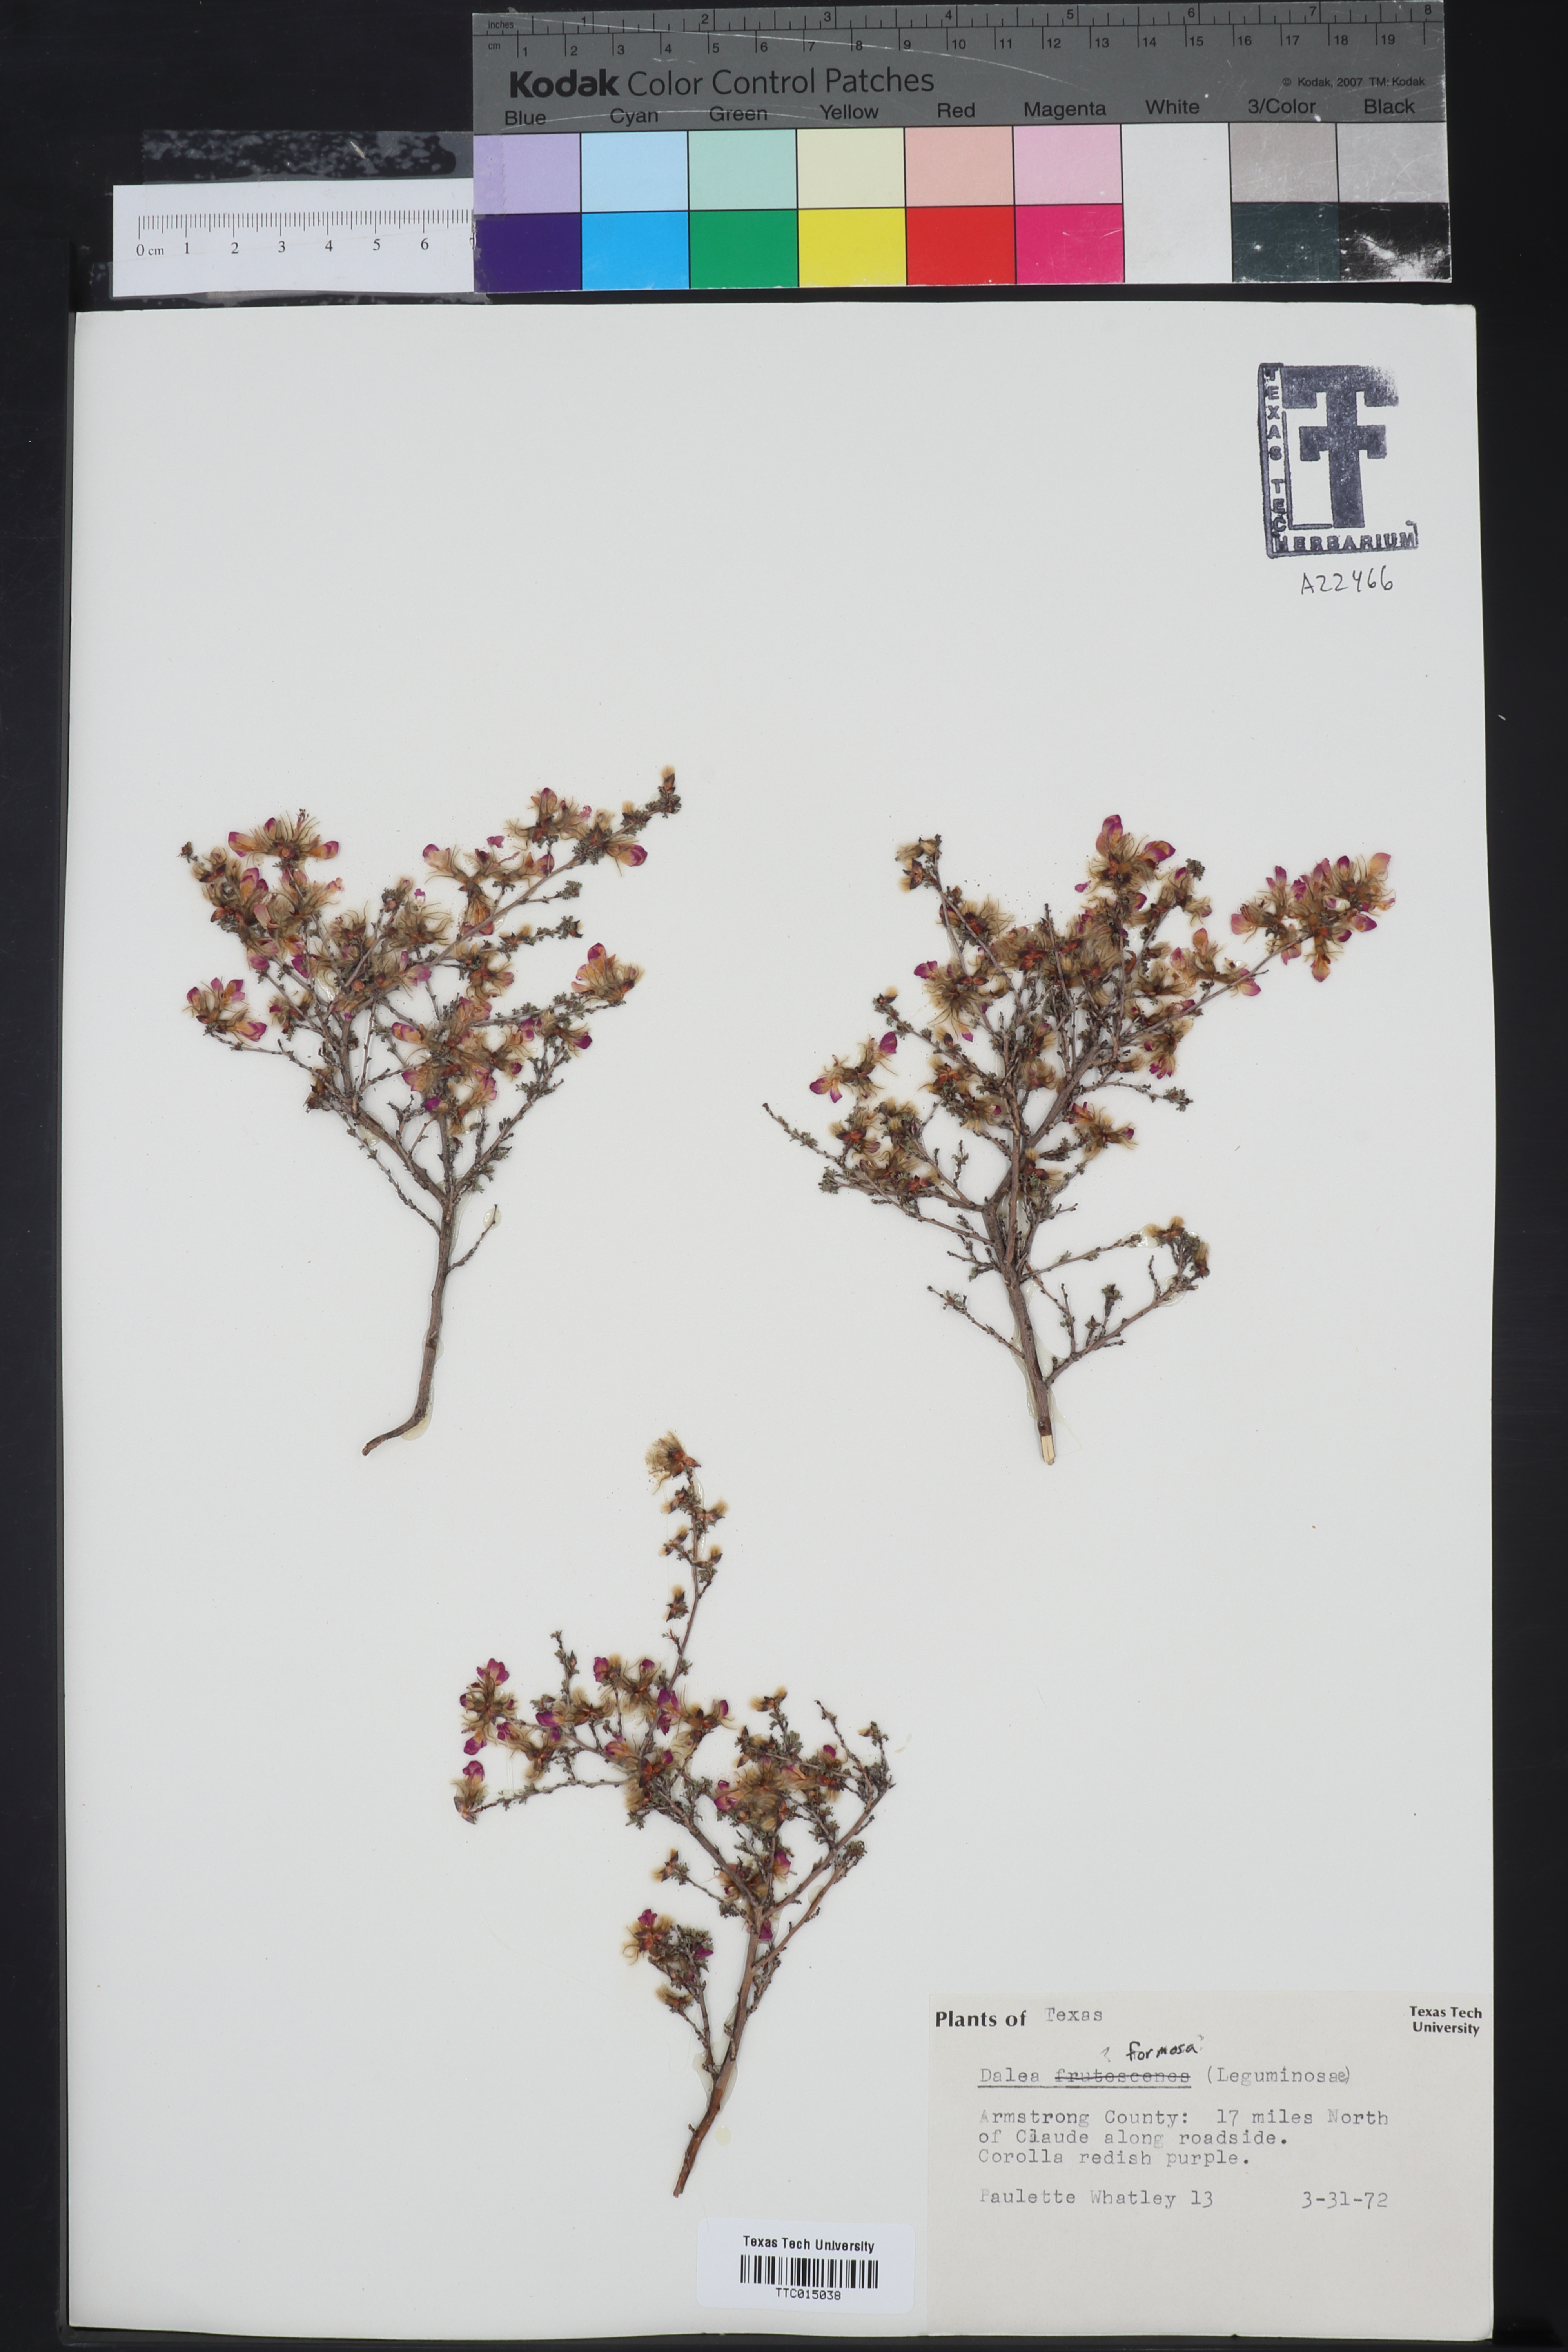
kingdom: Plantae
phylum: Tracheophyta
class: Magnoliopsida
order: Fabales
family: Fabaceae
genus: Dalea
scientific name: Dalea formosa
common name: Feather-plume dalea
